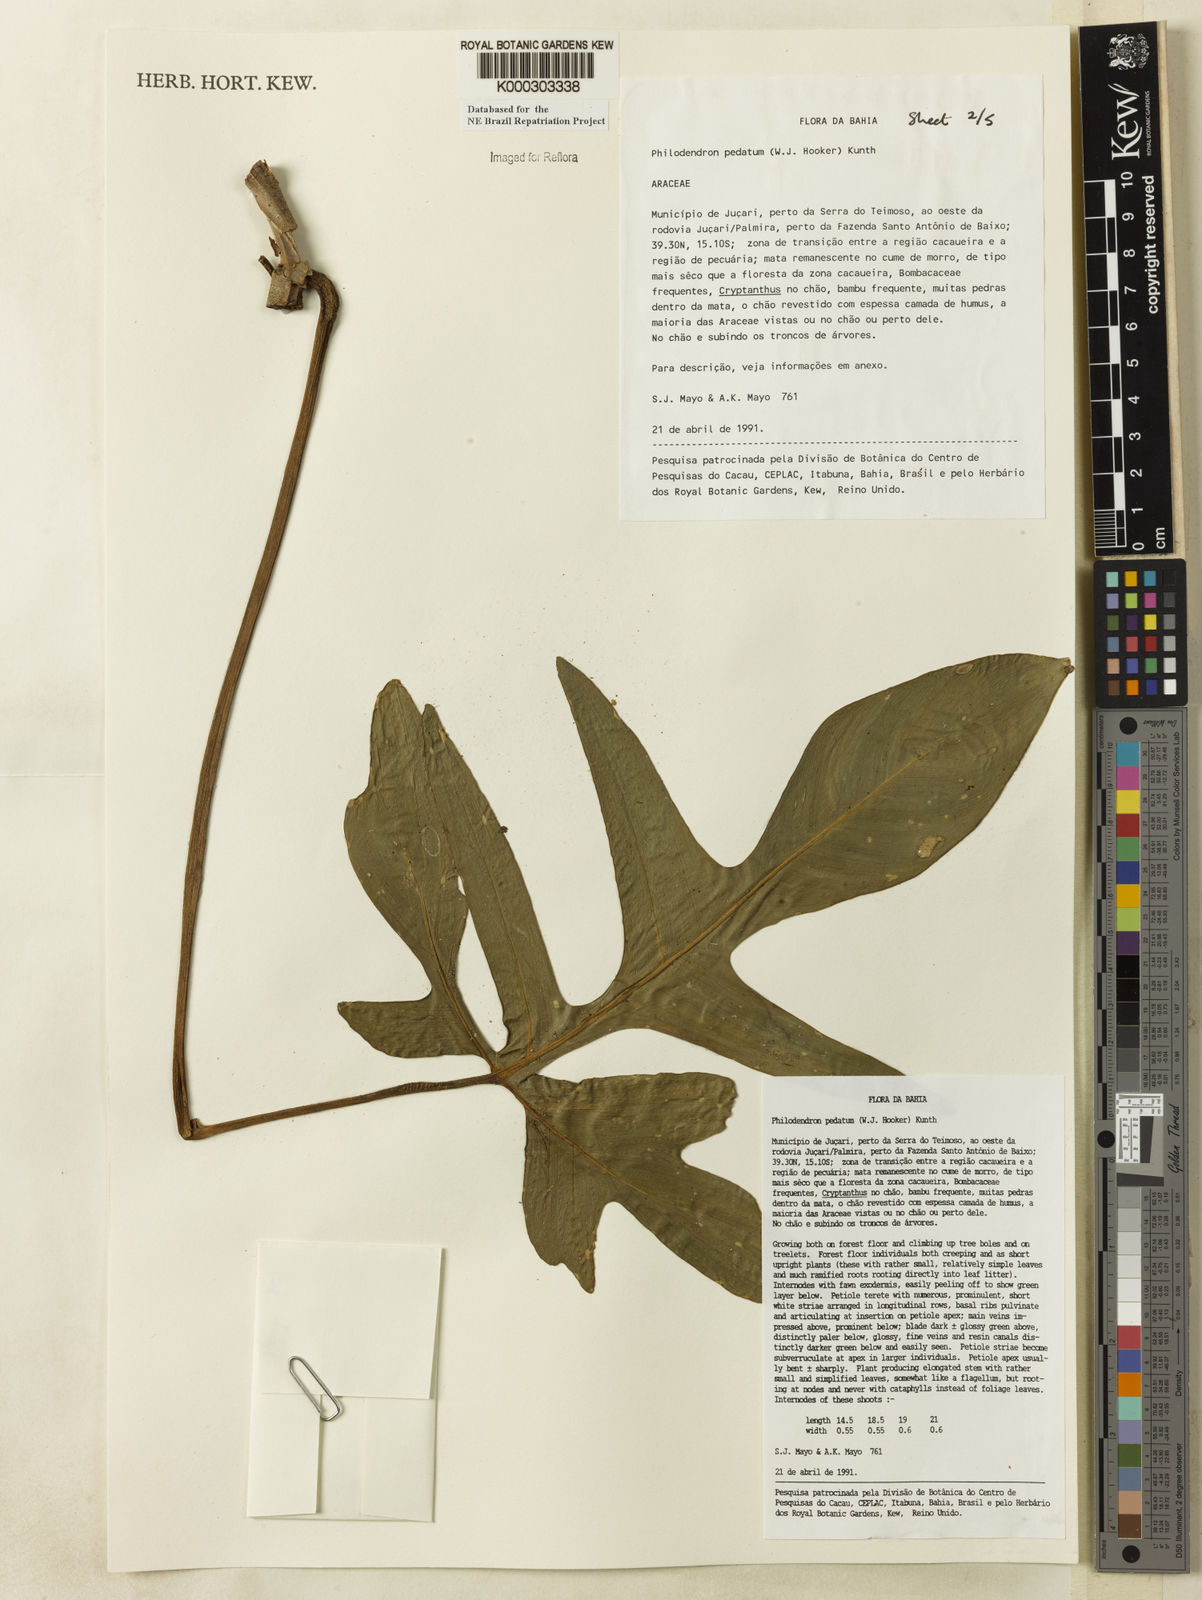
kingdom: Plantae
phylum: Tracheophyta
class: Liliopsida
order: Alismatales
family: Araceae
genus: Philodendron
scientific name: Philodendron pedatum
